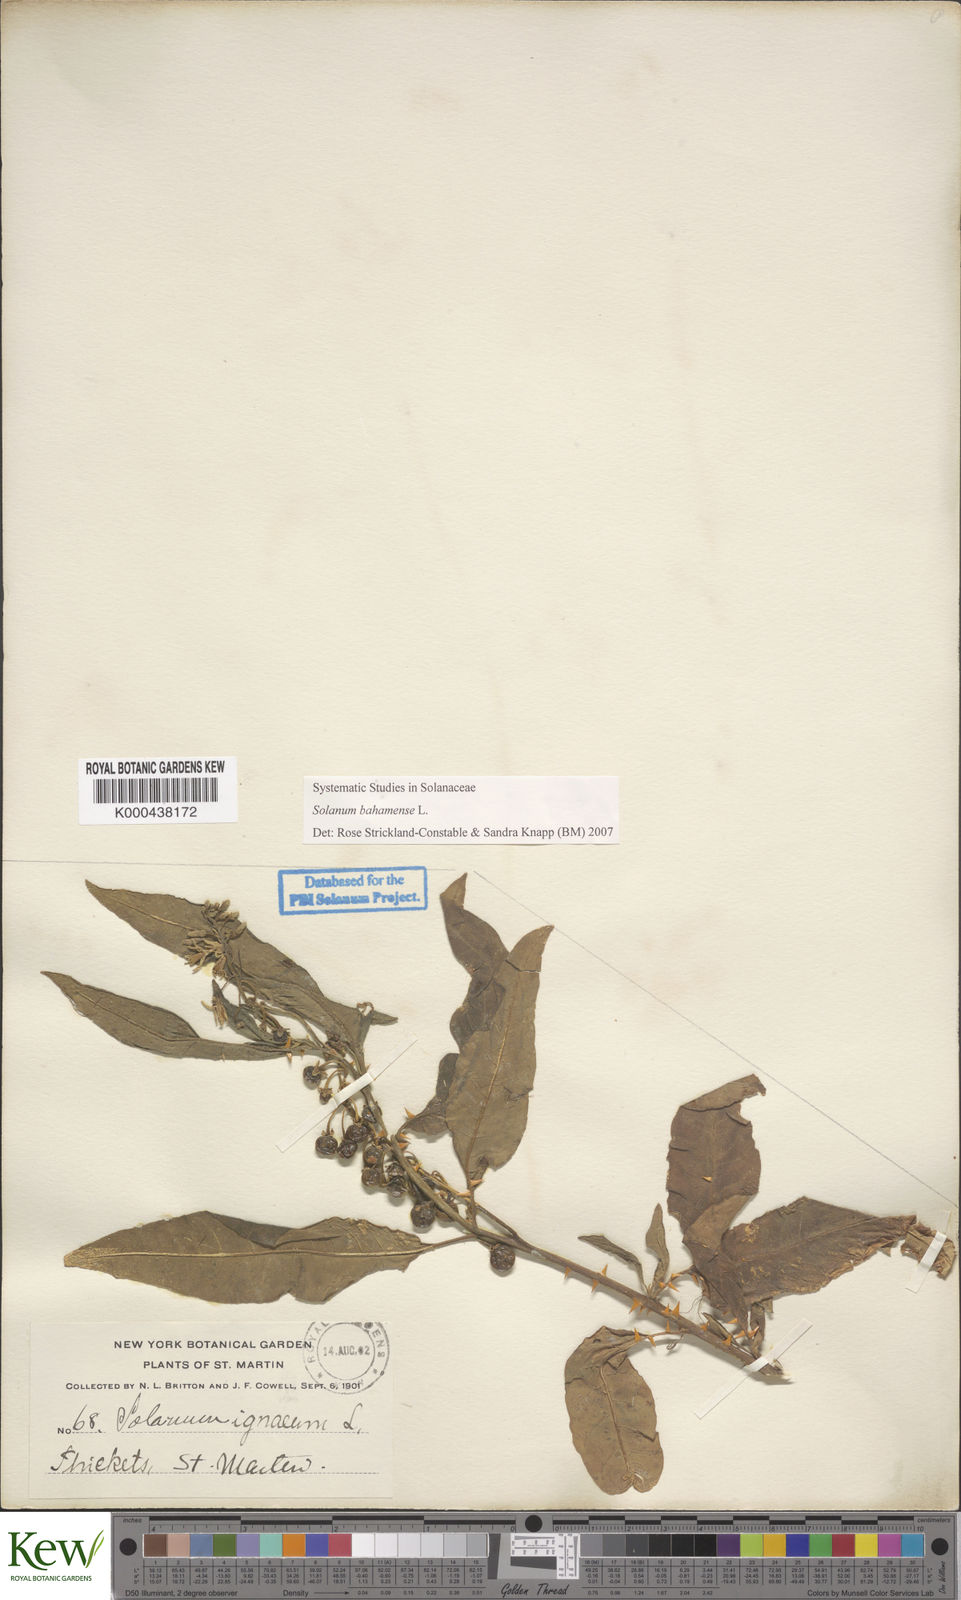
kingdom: Plantae
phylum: Tracheophyta
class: Magnoliopsida
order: Solanales
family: Solanaceae
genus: Solanum
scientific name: Solanum bahamense
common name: Canker-berry
